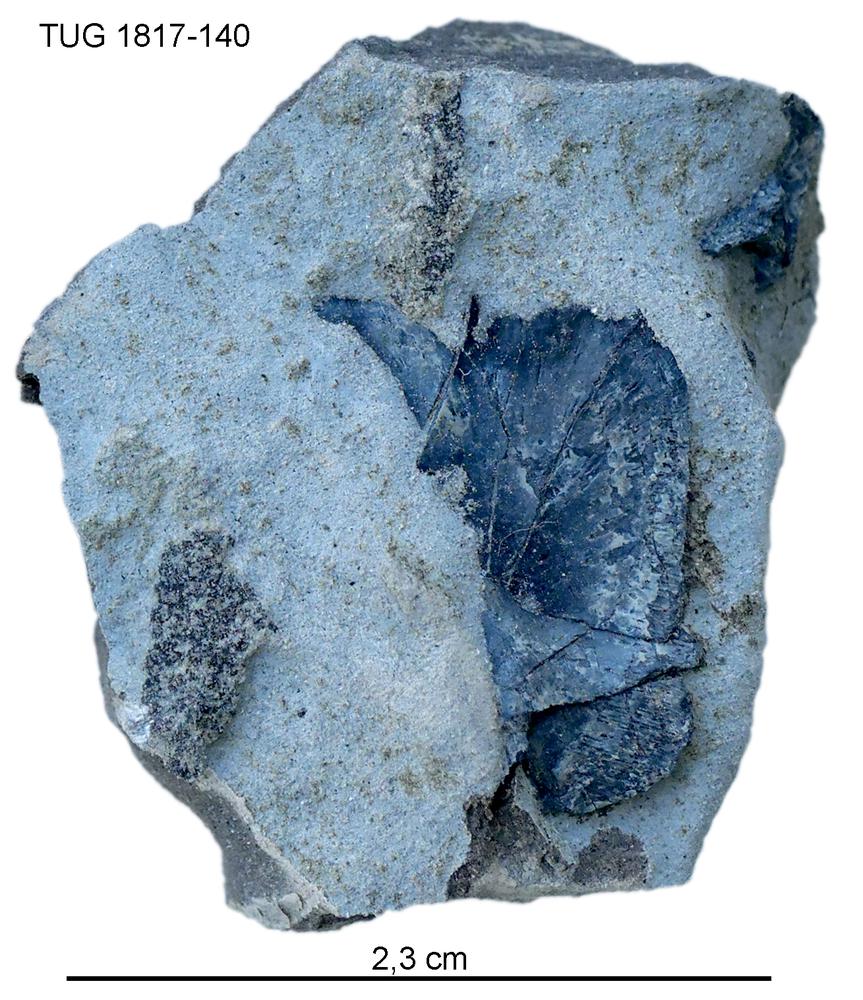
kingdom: Animalia
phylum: Chordata
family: Coccosteidae
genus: Millerosteus
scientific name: Millerosteus minor
